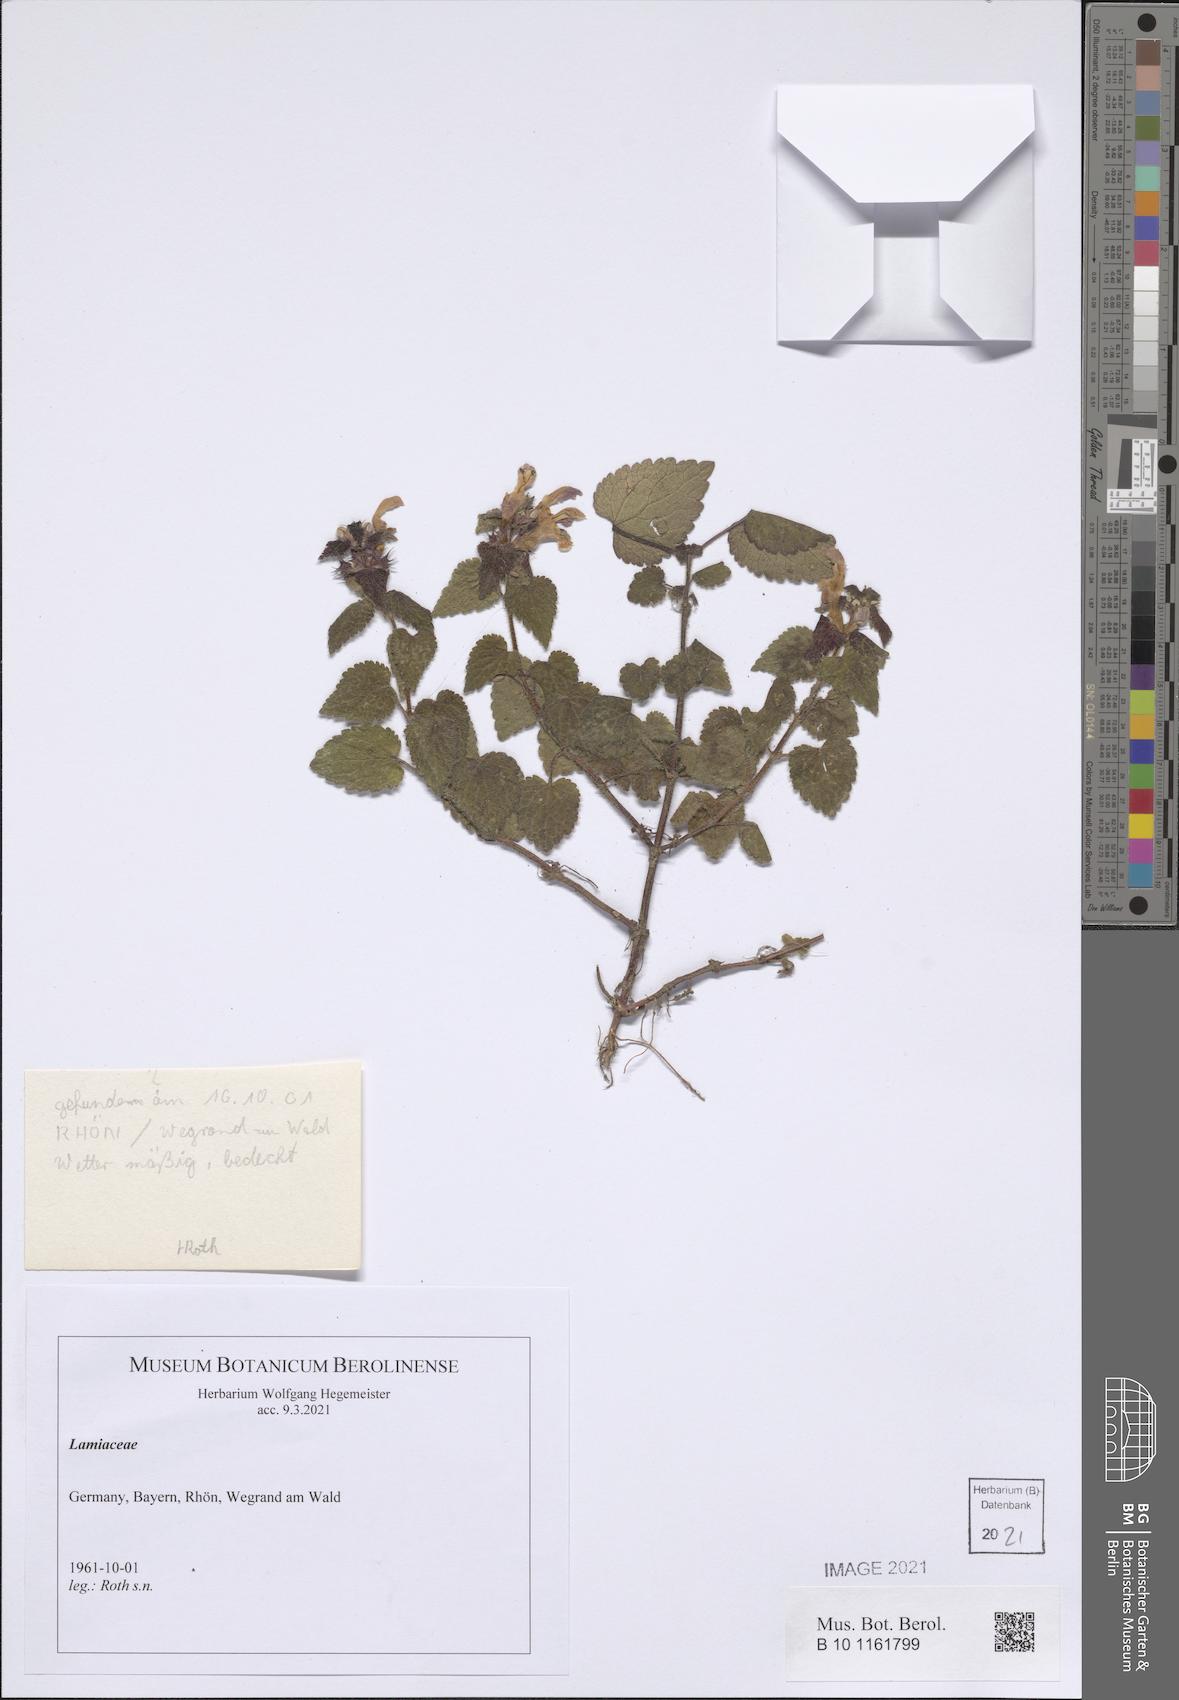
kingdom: Plantae
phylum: Tracheophyta
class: Magnoliopsida
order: Lamiales
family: Lamiaceae
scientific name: Lamiaceae
